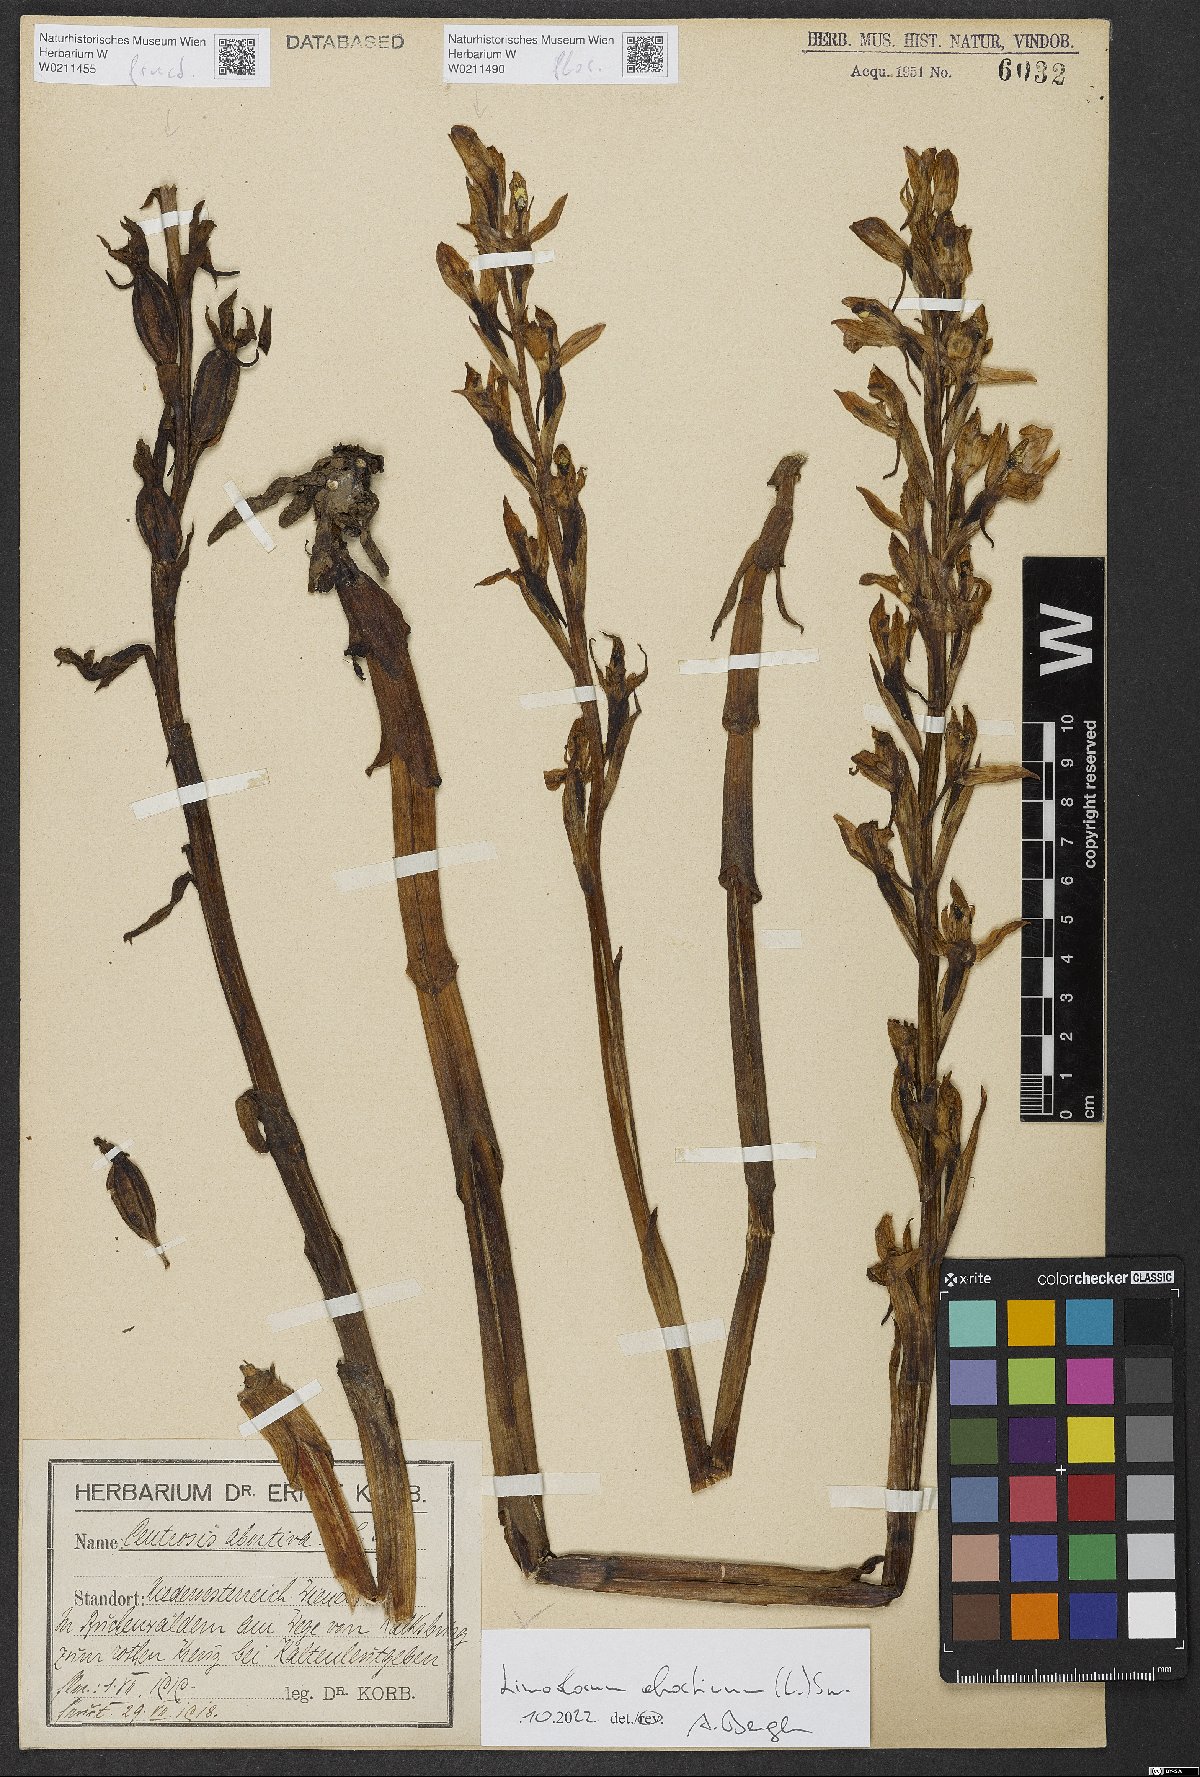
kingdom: Plantae
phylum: Tracheophyta
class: Liliopsida
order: Asparagales
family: Orchidaceae
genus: Limodorum
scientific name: Limodorum abortivum
